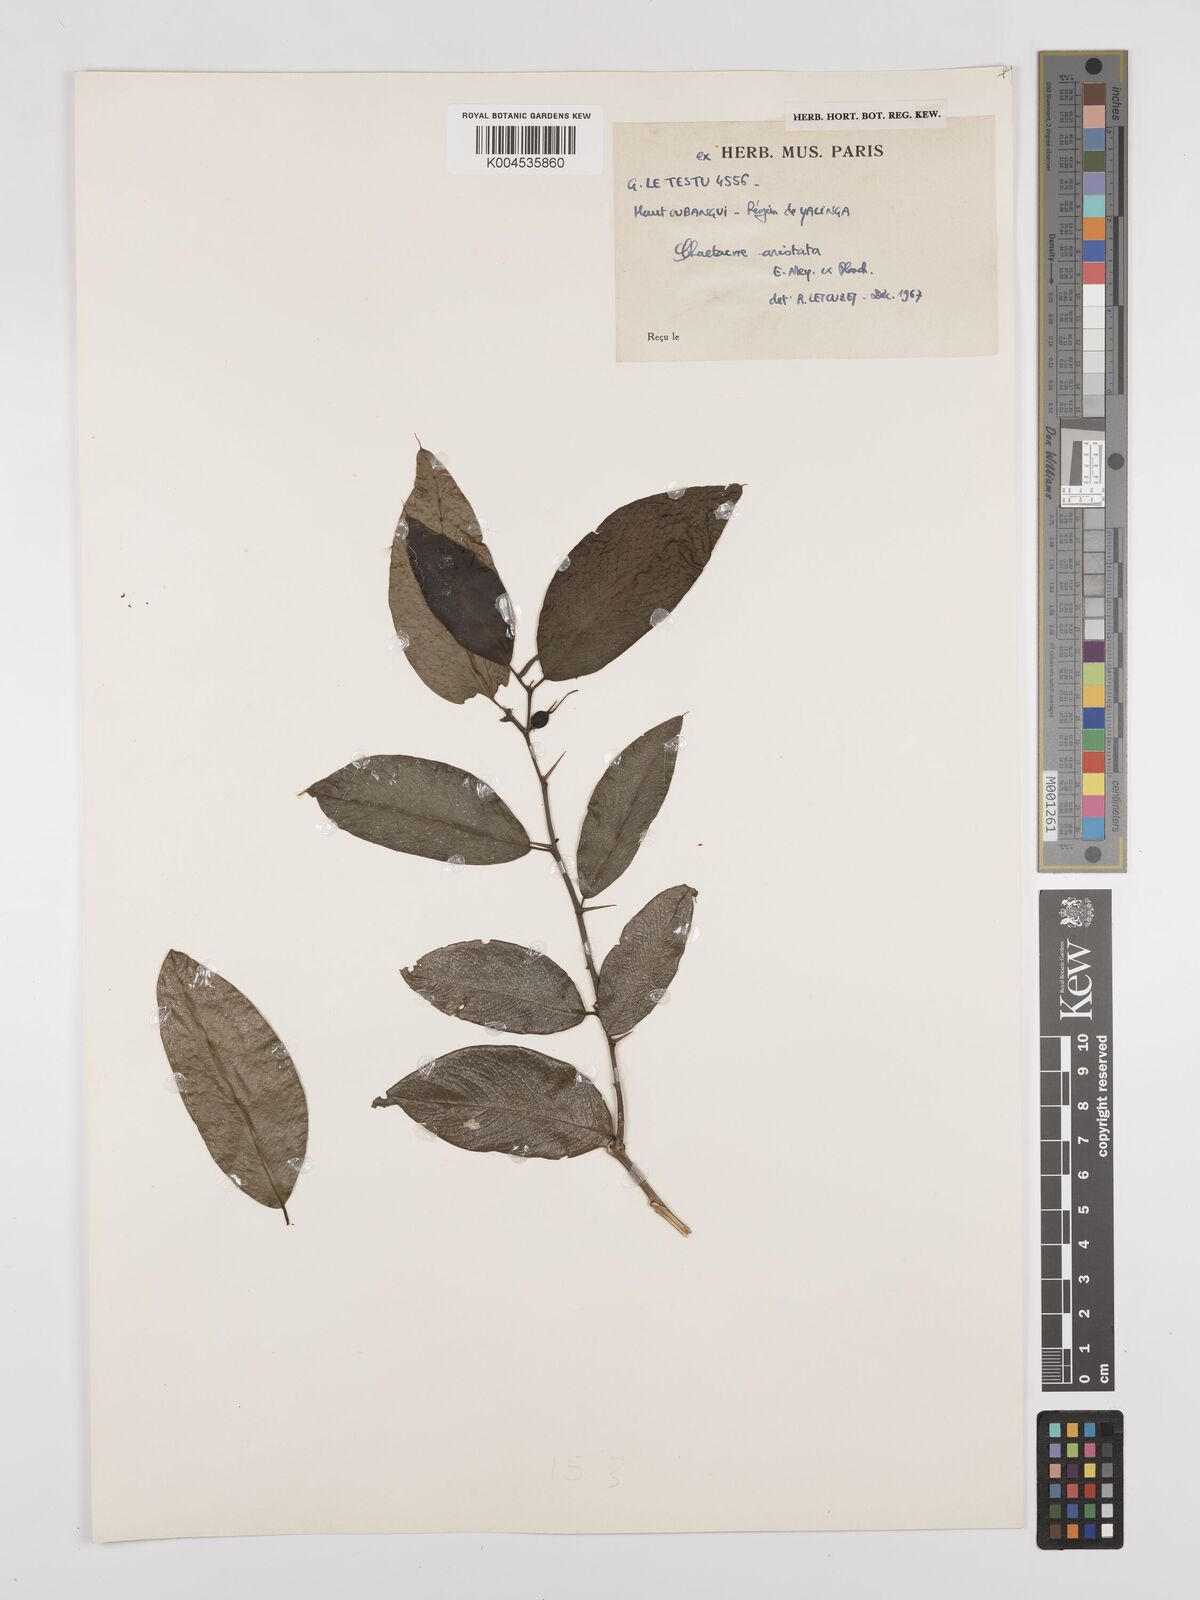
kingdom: Plantae
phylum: Tracheophyta
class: Magnoliopsida
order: Rosales
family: Cannabaceae
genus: Chaetachme
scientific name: Chaetachme aristata
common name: Thorny elm
